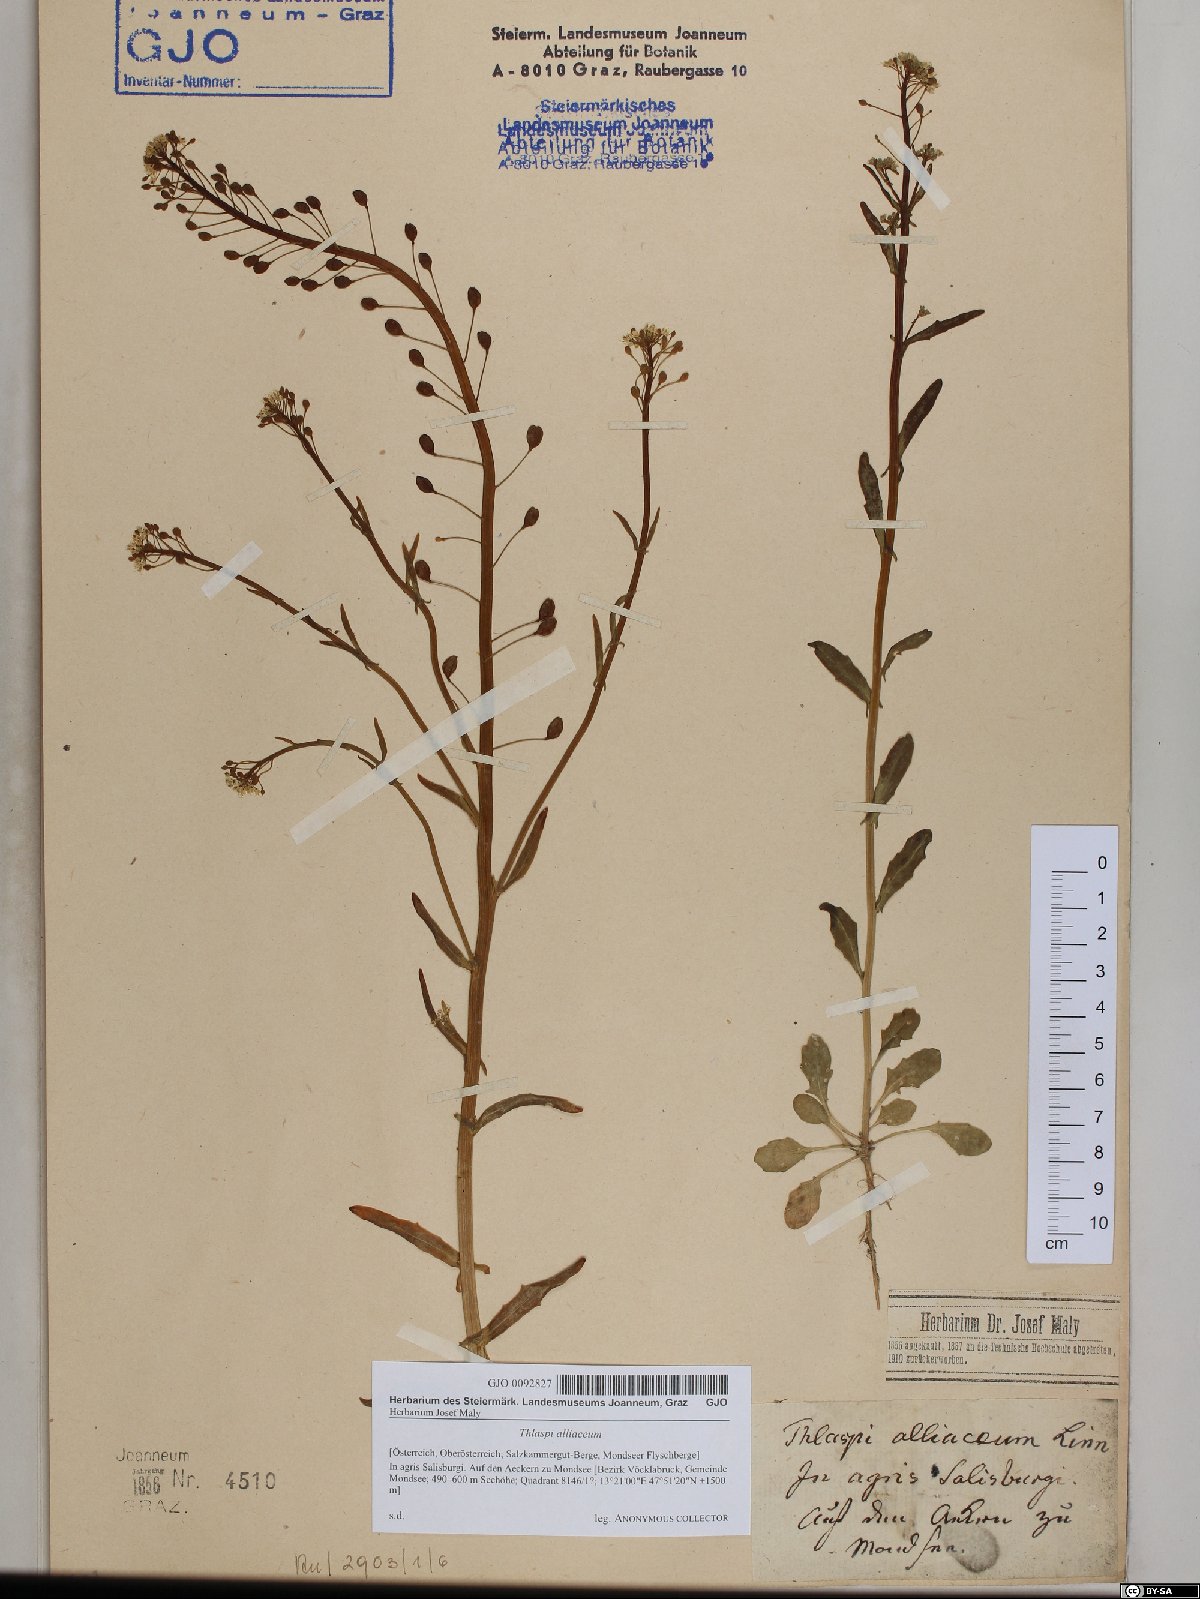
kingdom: Plantae
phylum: Tracheophyta
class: Magnoliopsida
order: Brassicales
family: Brassicaceae
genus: Mummenhoffia
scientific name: Mummenhoffia alliacea
